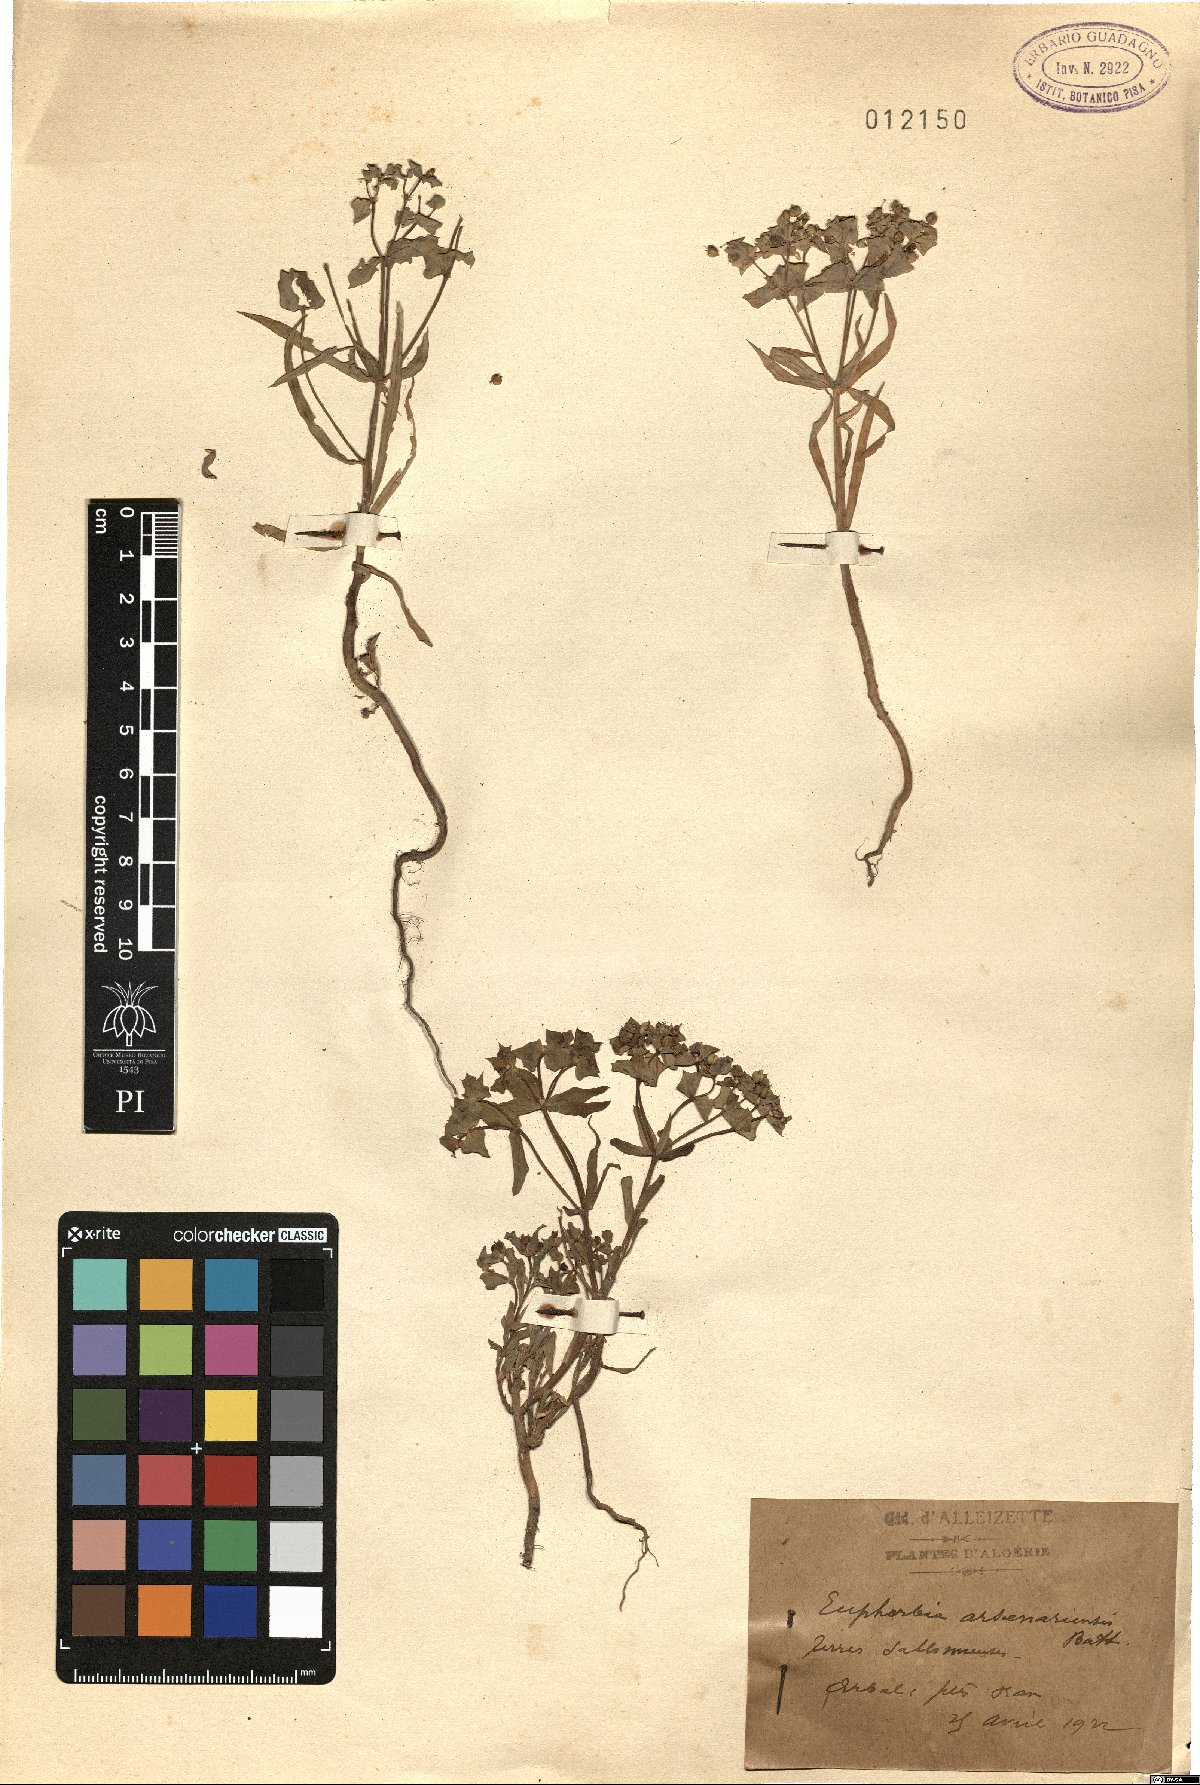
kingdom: Plantae
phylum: Tracheophyta
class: Magnoliopsida
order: Malpighiales
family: Euphorbiaceae
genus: Euphorbia
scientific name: Euphorbia medicaginea
